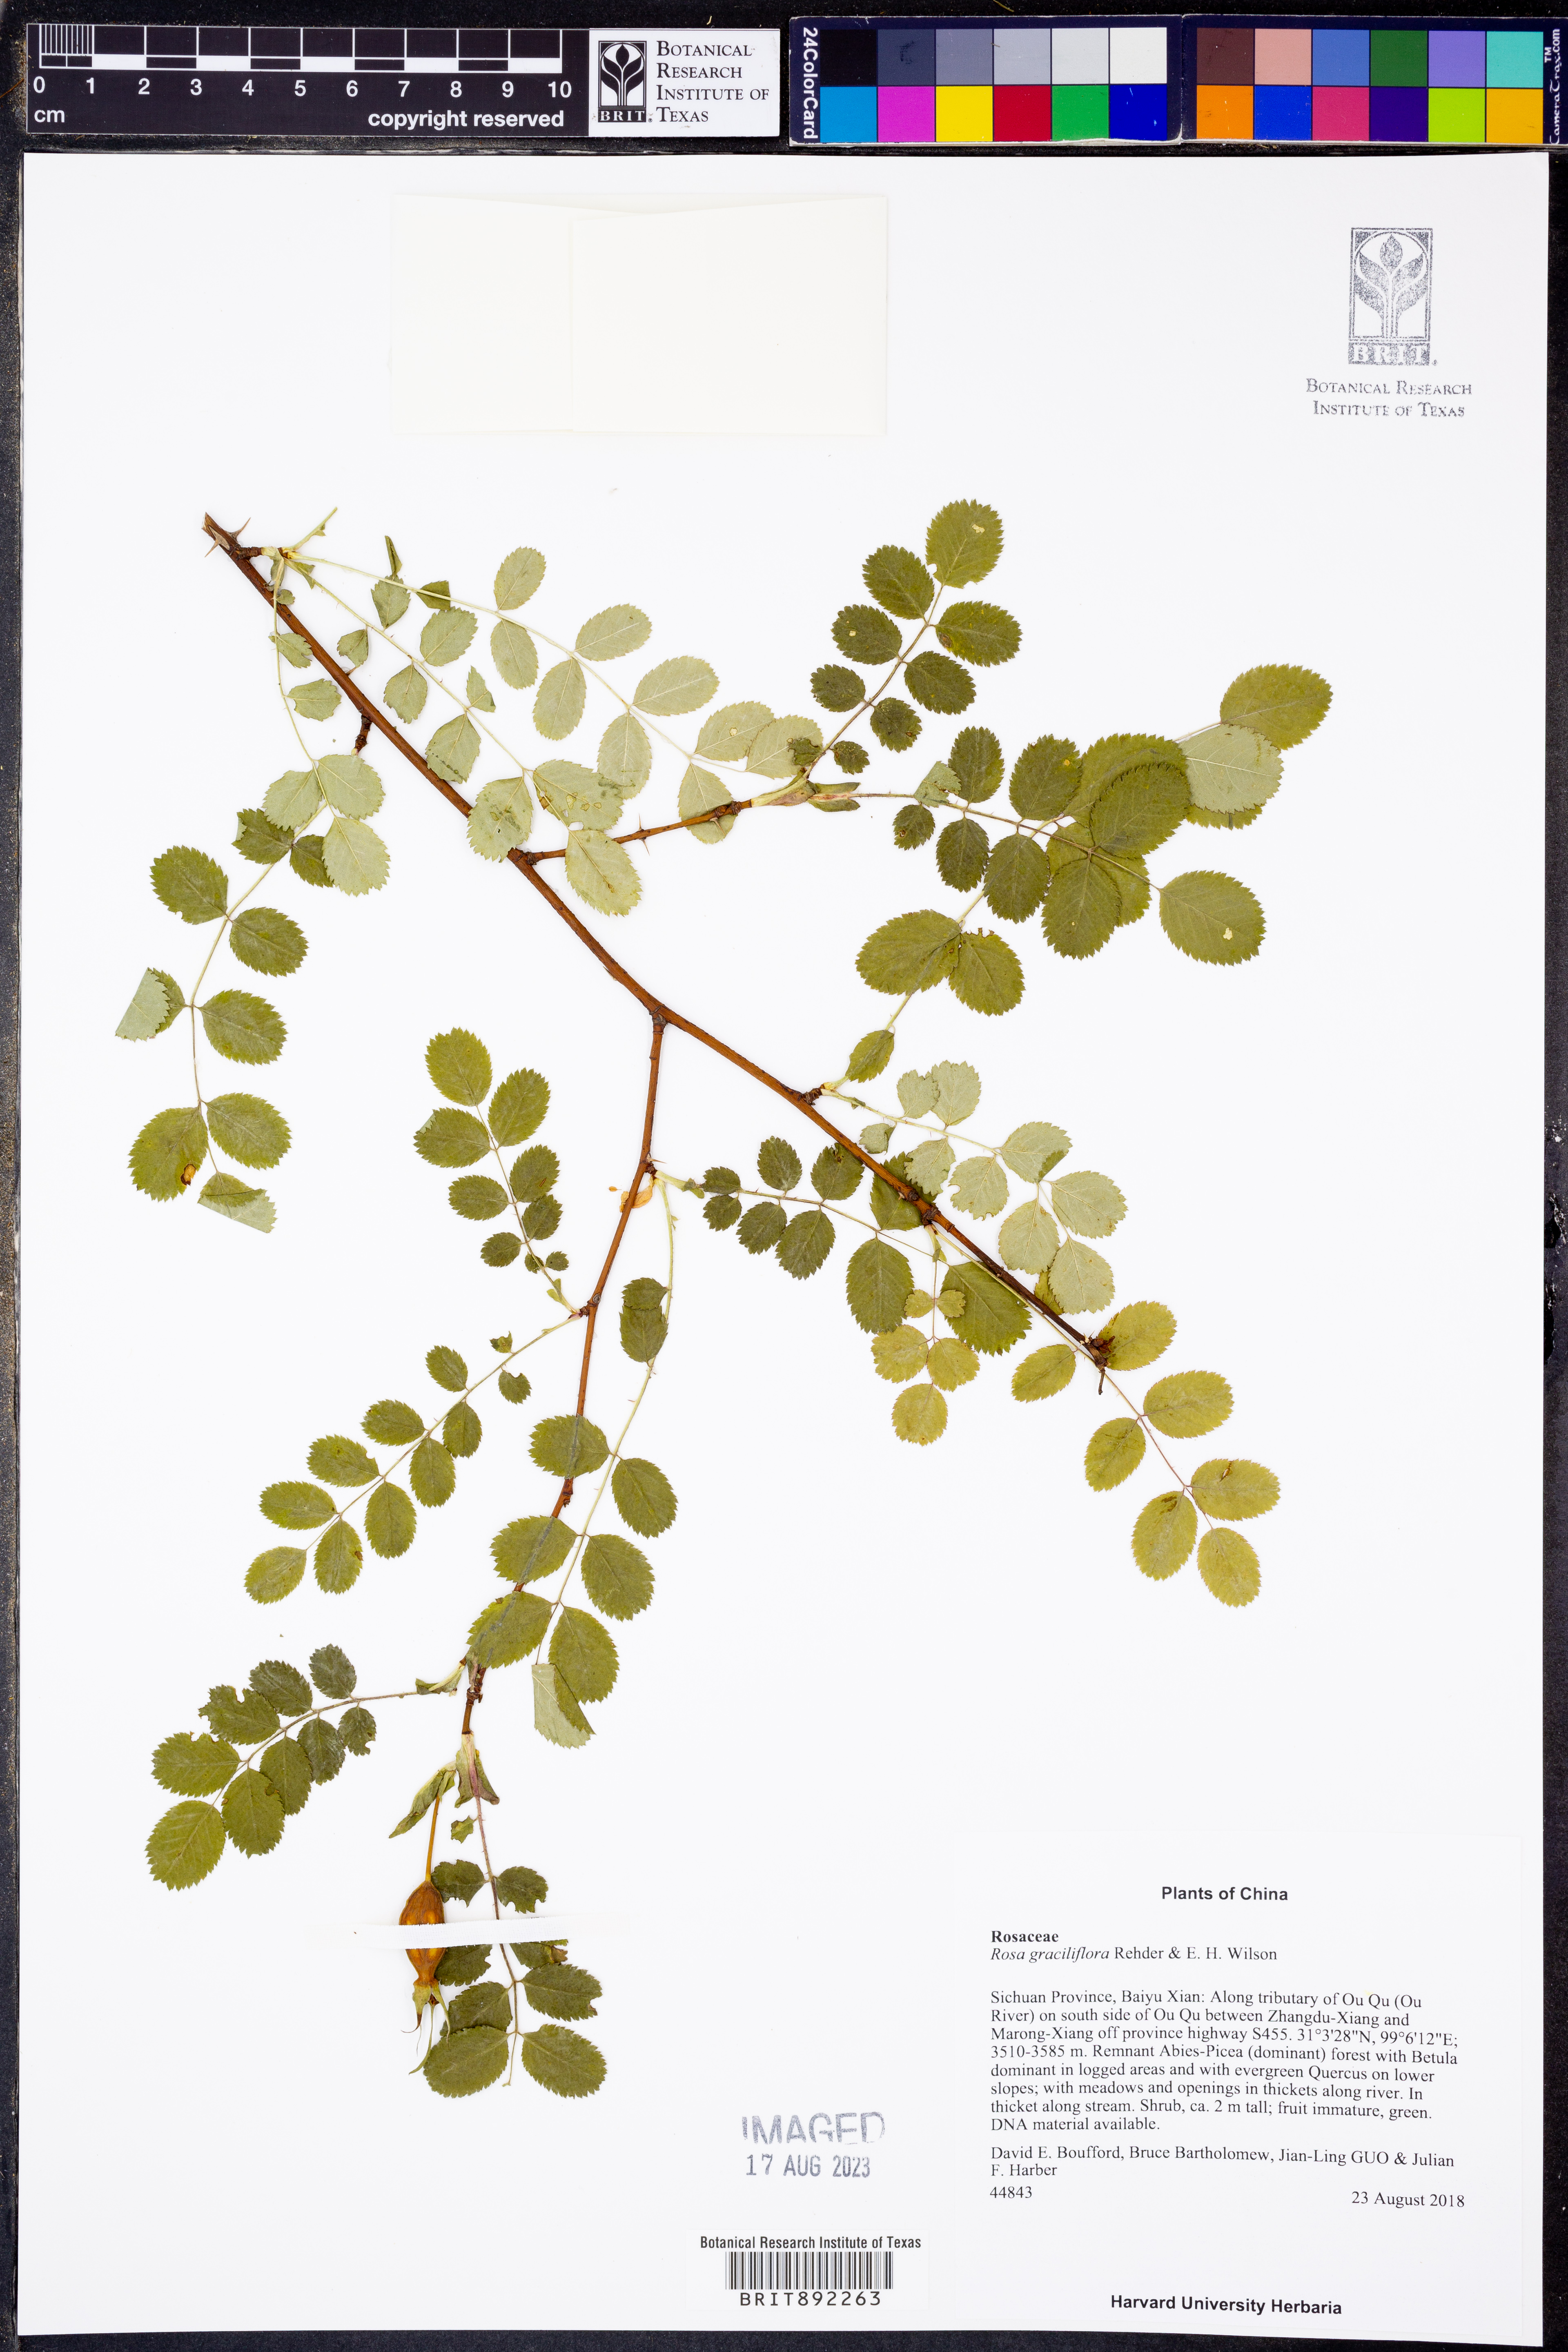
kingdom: Plantae
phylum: Tracheophyta
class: Magnoliopsida
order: Rosales
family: Rosaceae
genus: Rosa
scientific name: Rosa graciliflora
